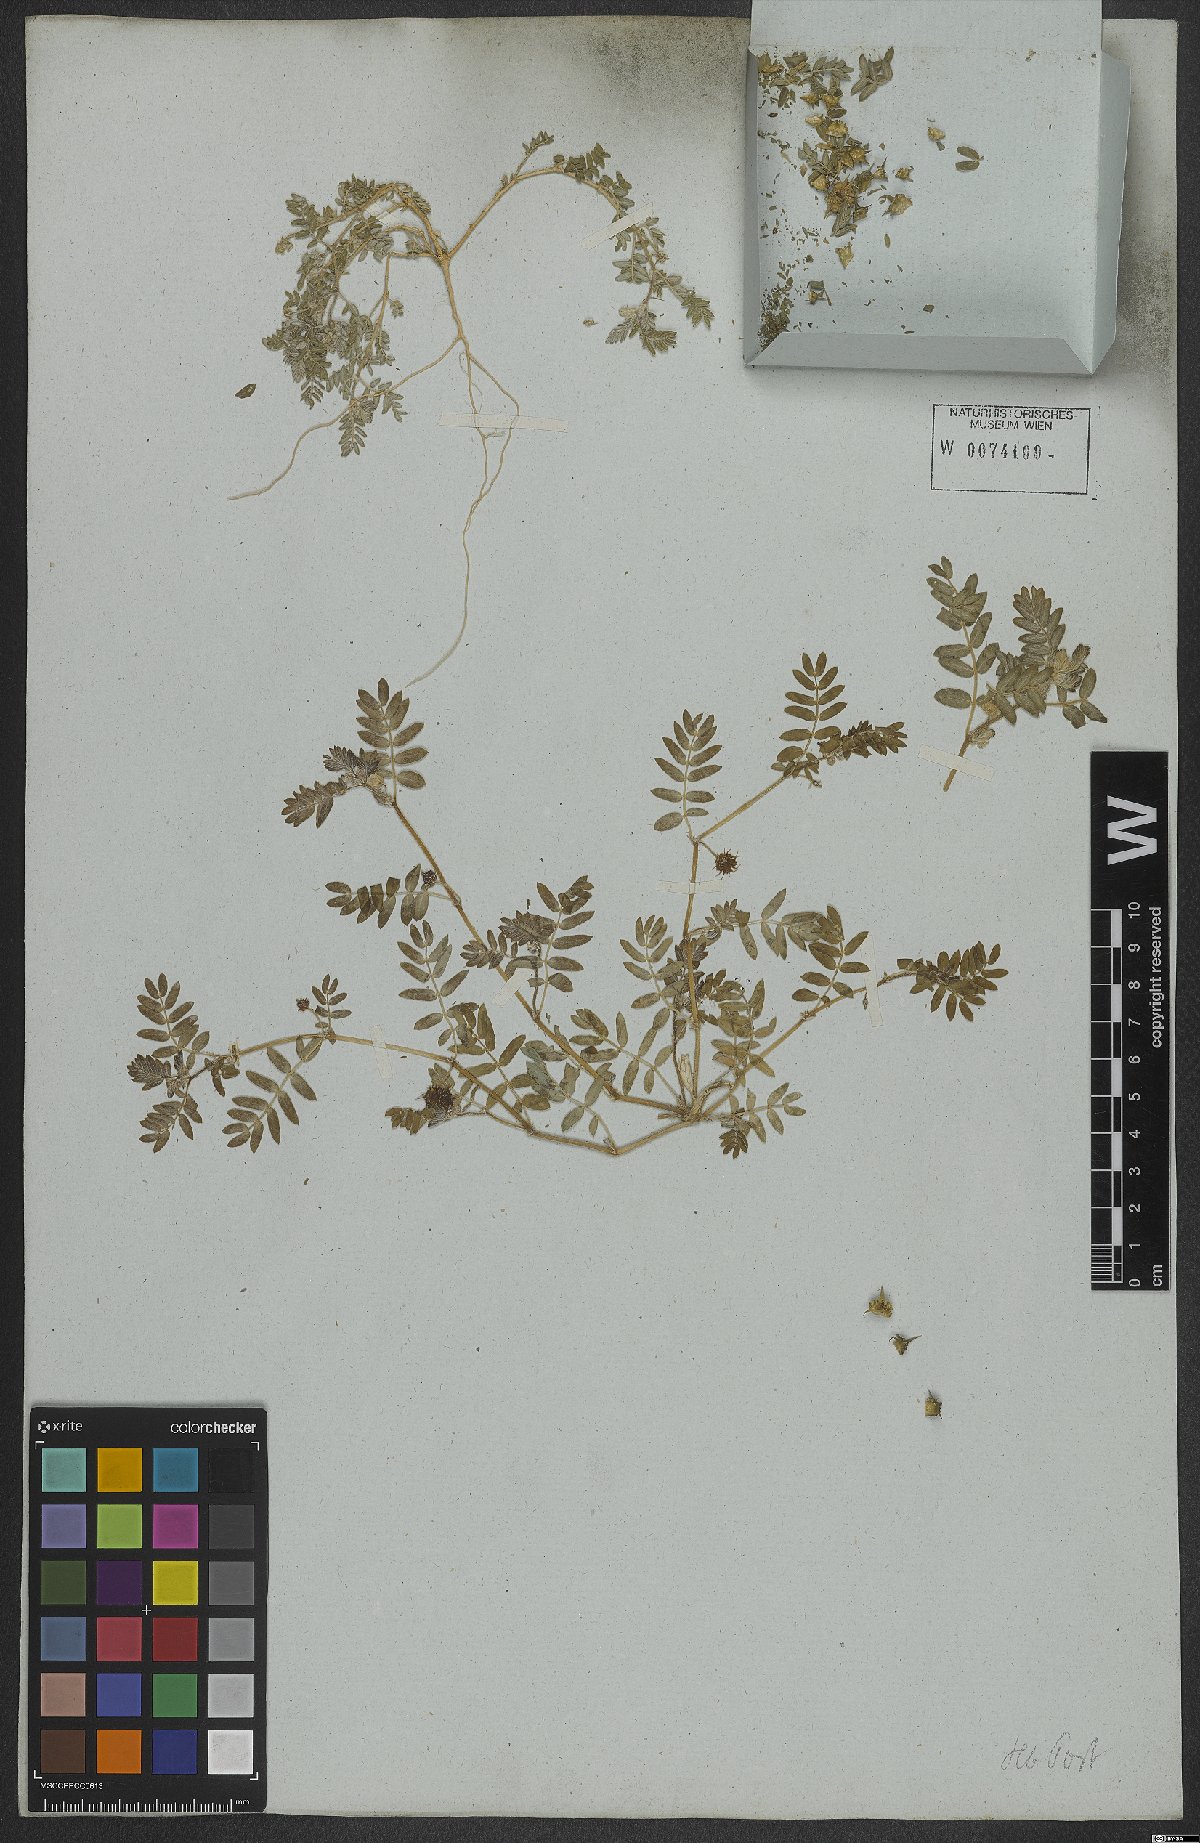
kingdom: Plantae
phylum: Tracheophyta
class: Magnoliopsida
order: Zygophyllales
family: Zygophyllaceae
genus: Tribulus
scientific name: Tribulus terrestris
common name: Puncturevine
